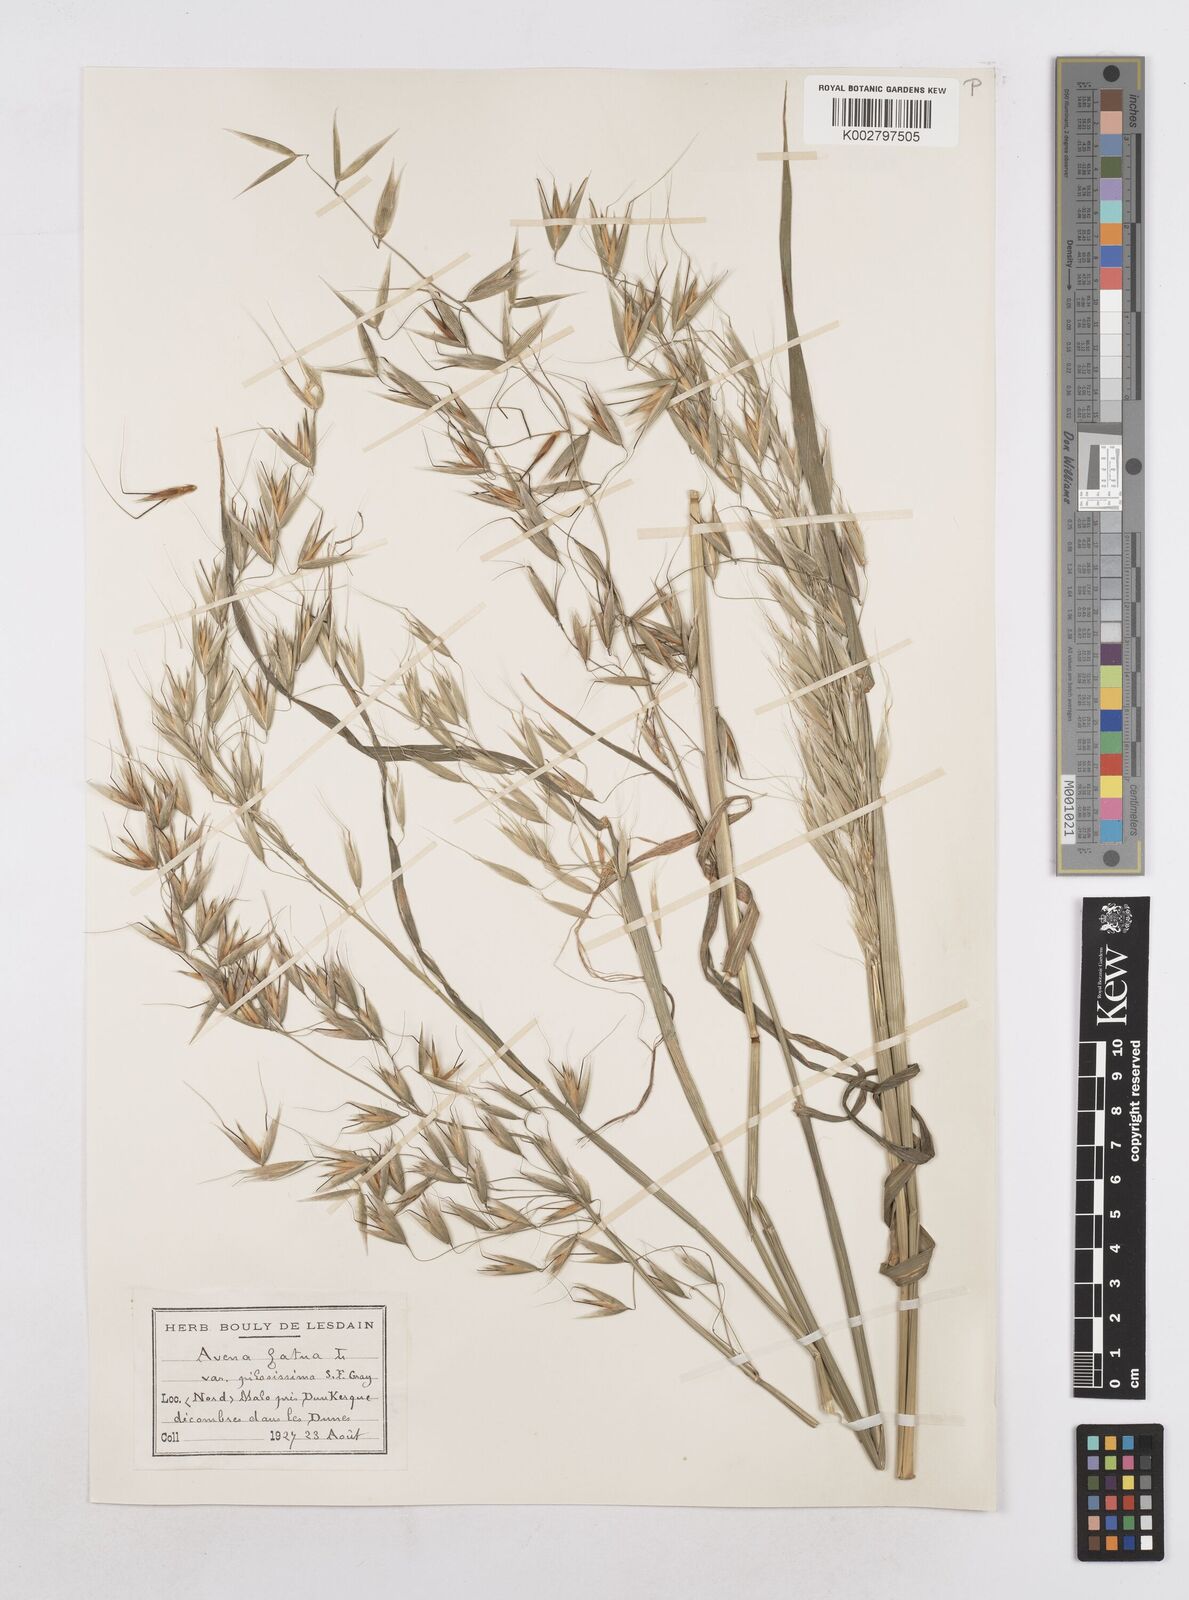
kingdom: Plantae
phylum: Tracheophyta
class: Liliopsida
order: Poales
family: Poaceae
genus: Avena
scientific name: Avena fatua
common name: Wild oat
